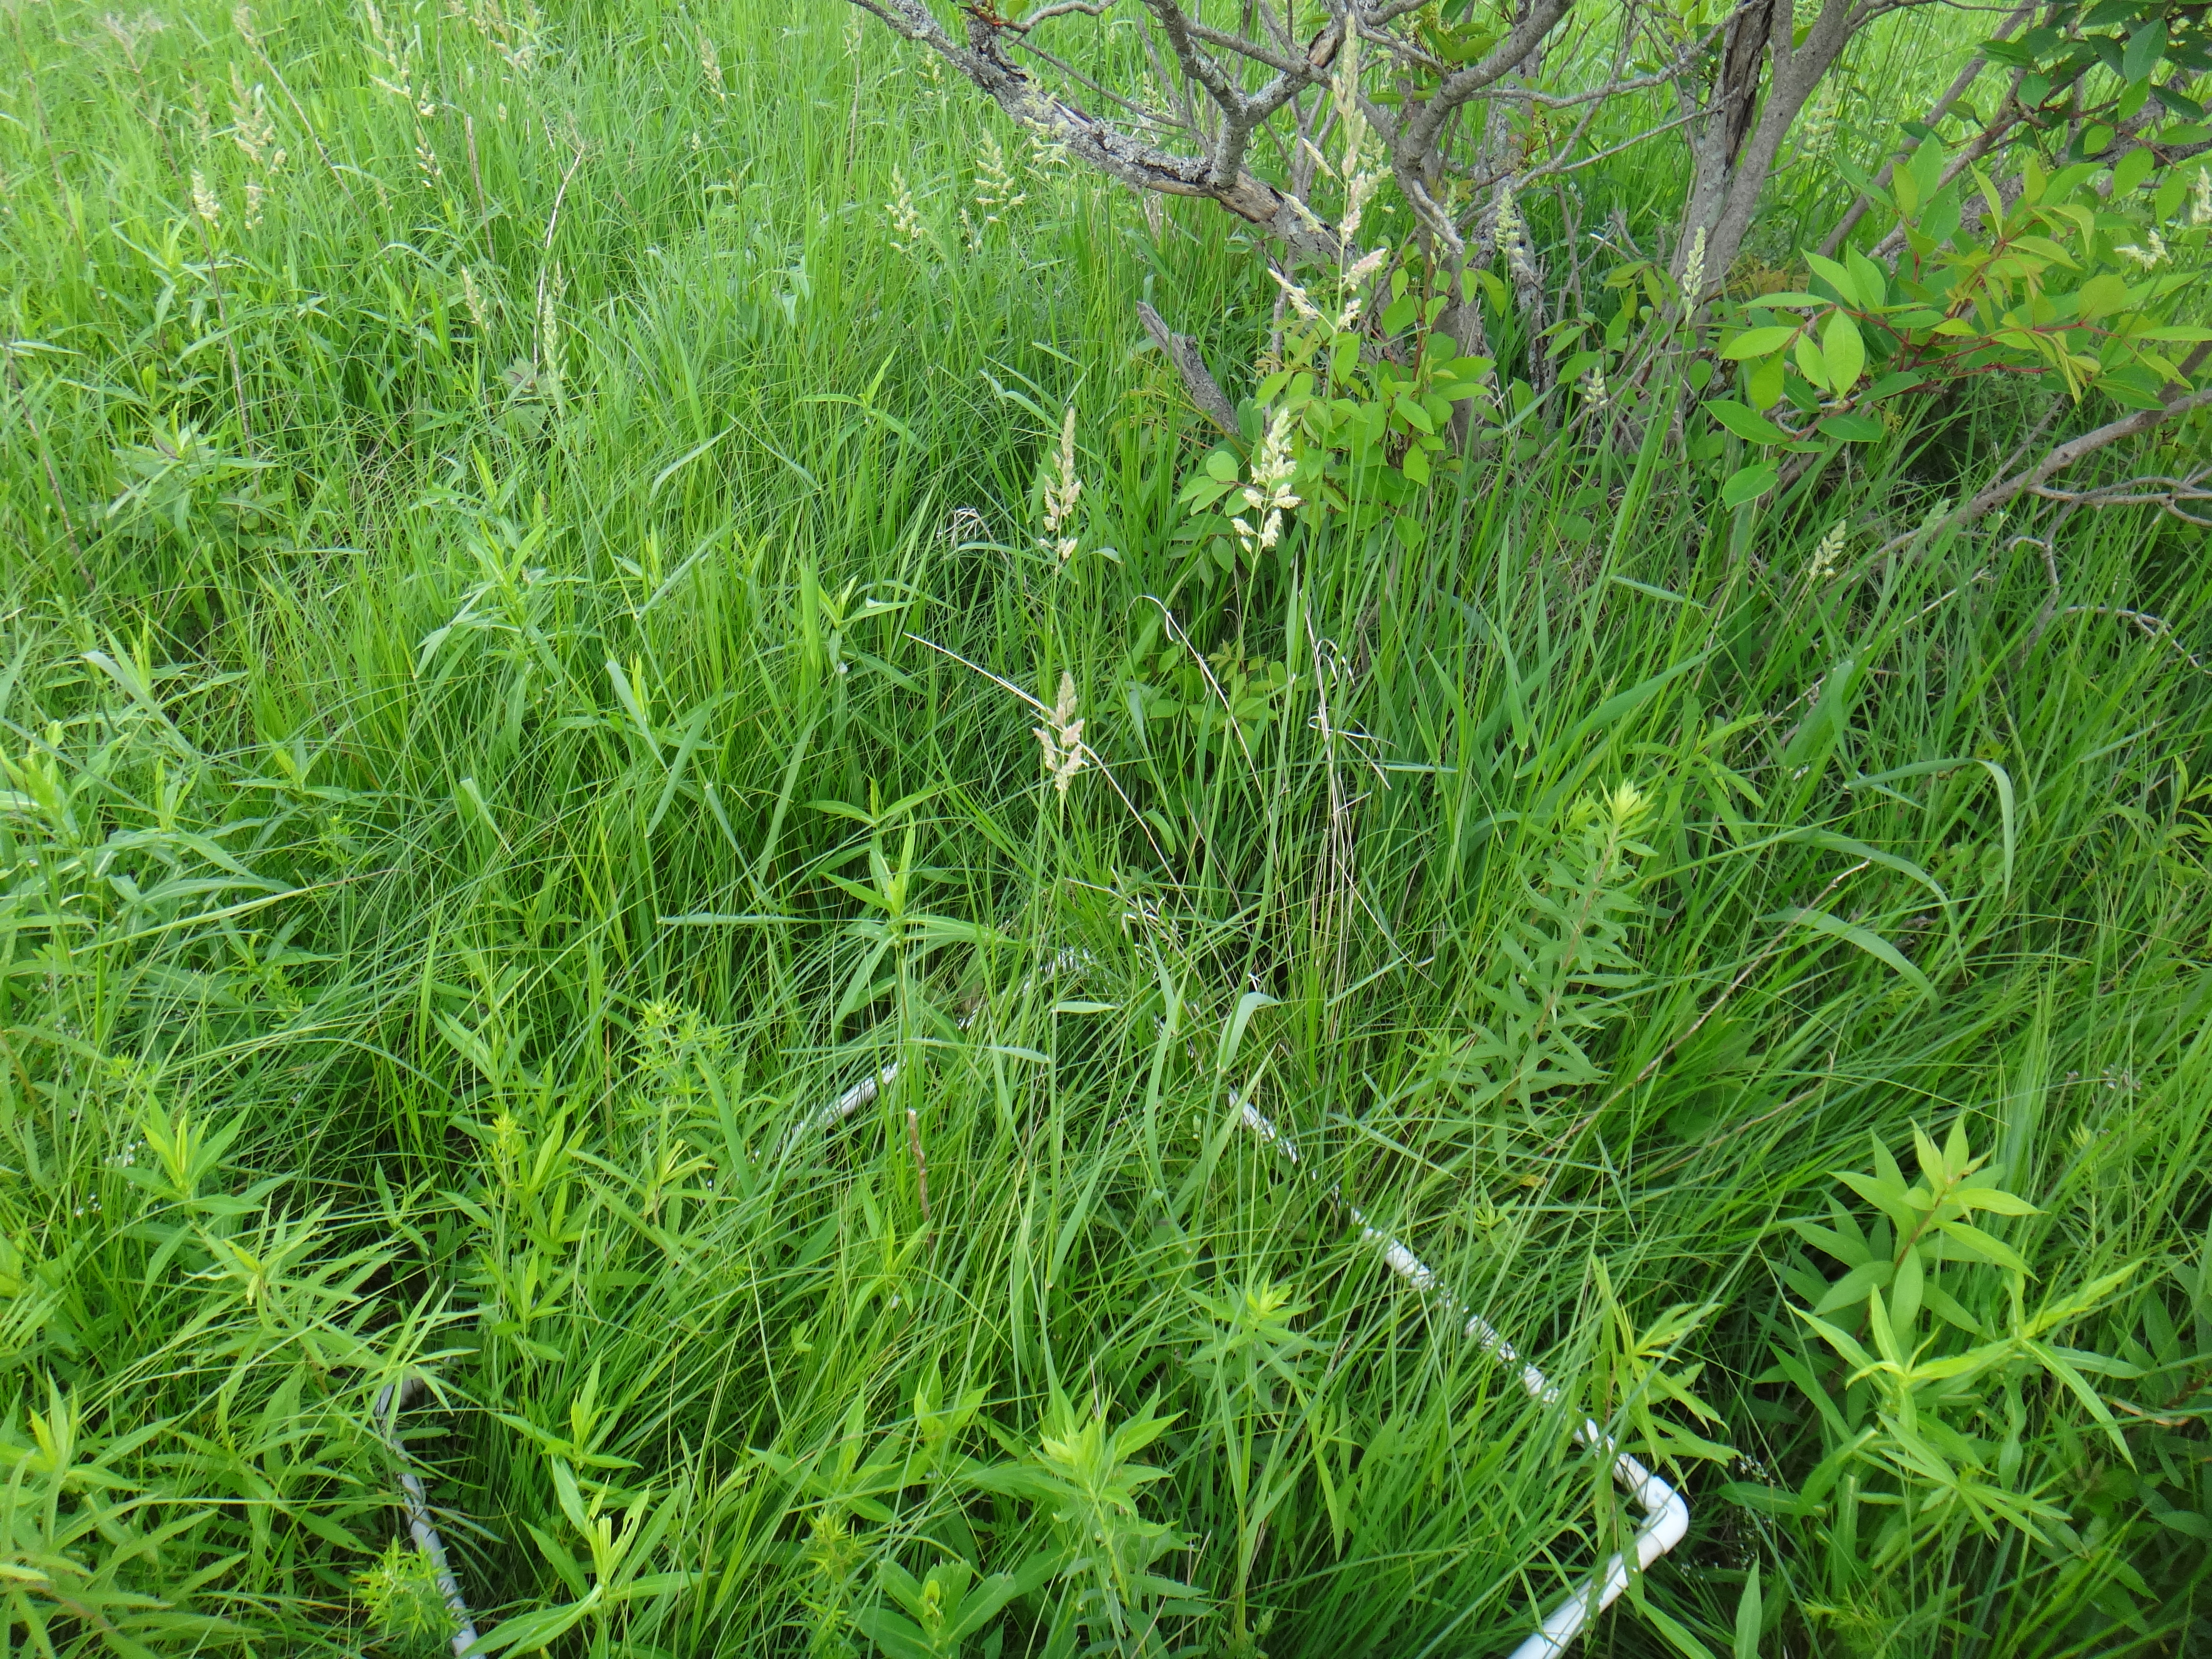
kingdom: Plantae
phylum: Tracheophyta
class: Magnoliopsida
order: Lamiales
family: Lamiaceae
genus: Pycnanthemum
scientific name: Pycnanthemum virginianum
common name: Virginia mountain-mint
